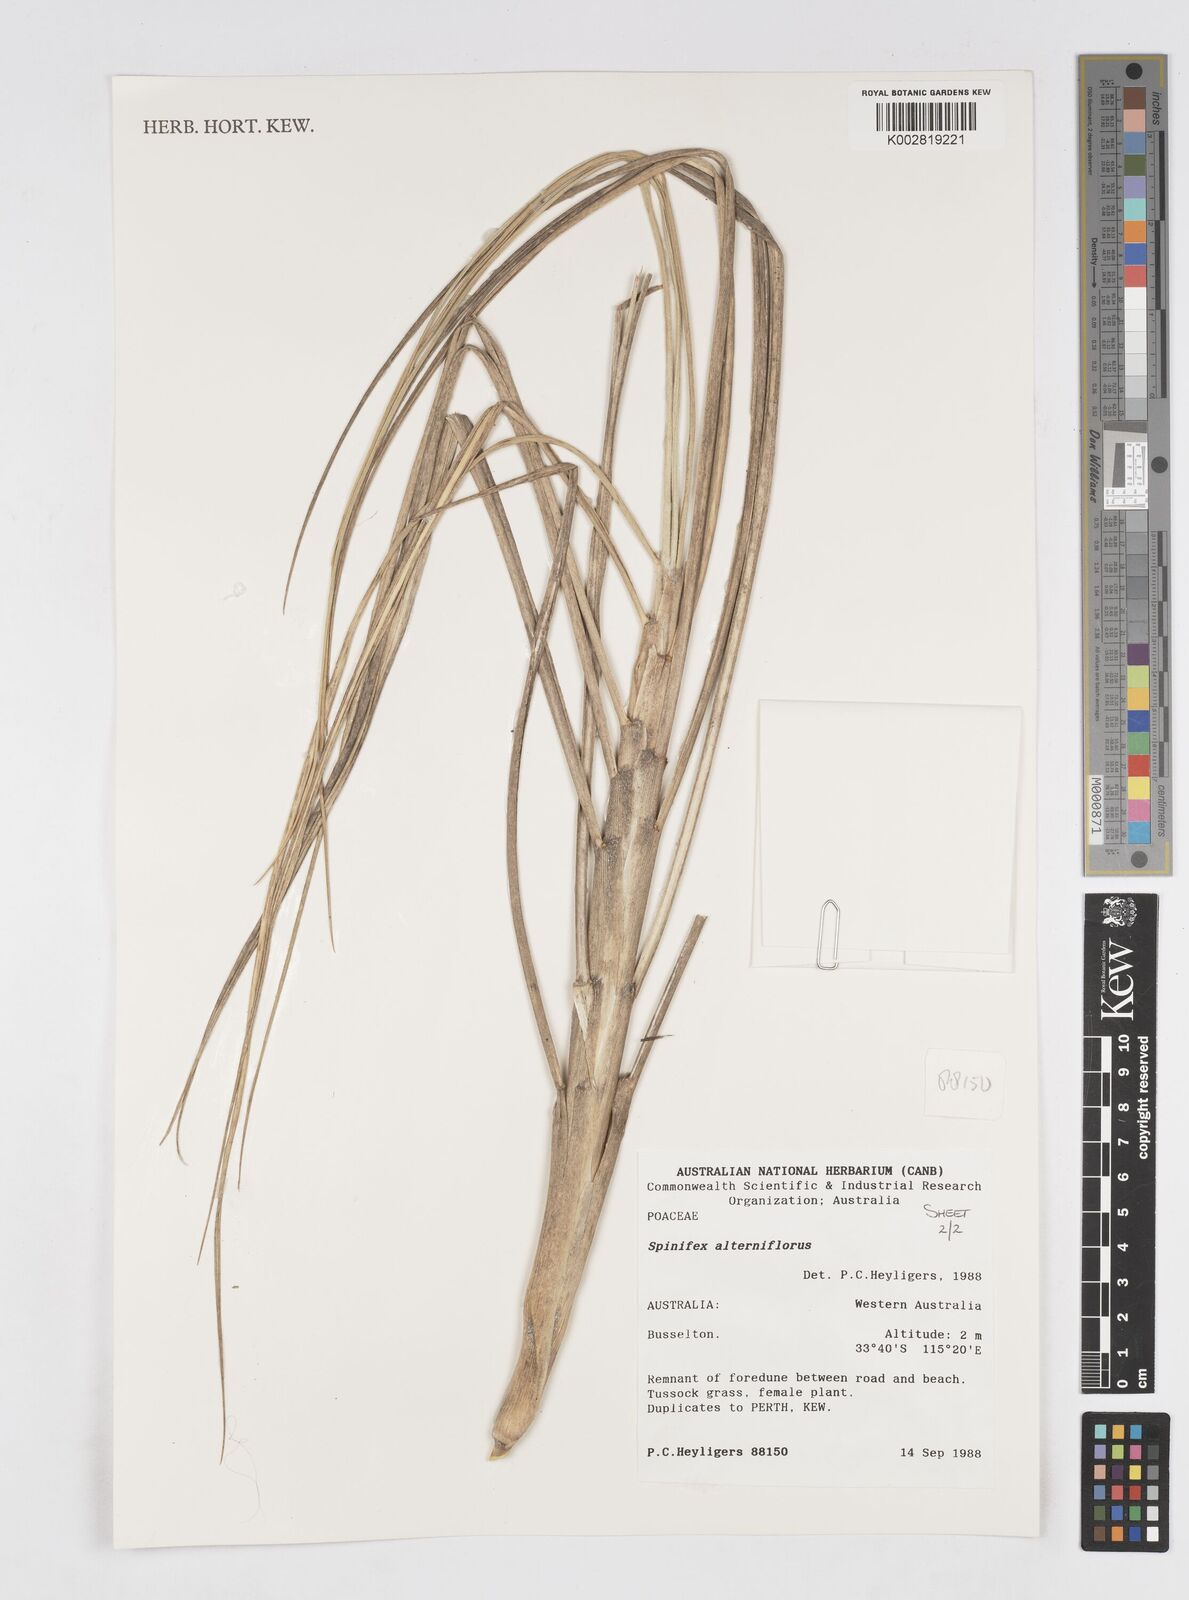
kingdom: Plantae
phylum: Tracheophyta
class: Liliopsida
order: Poales
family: Poaceae
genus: Spinifex
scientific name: Spinifex alterniflorus
